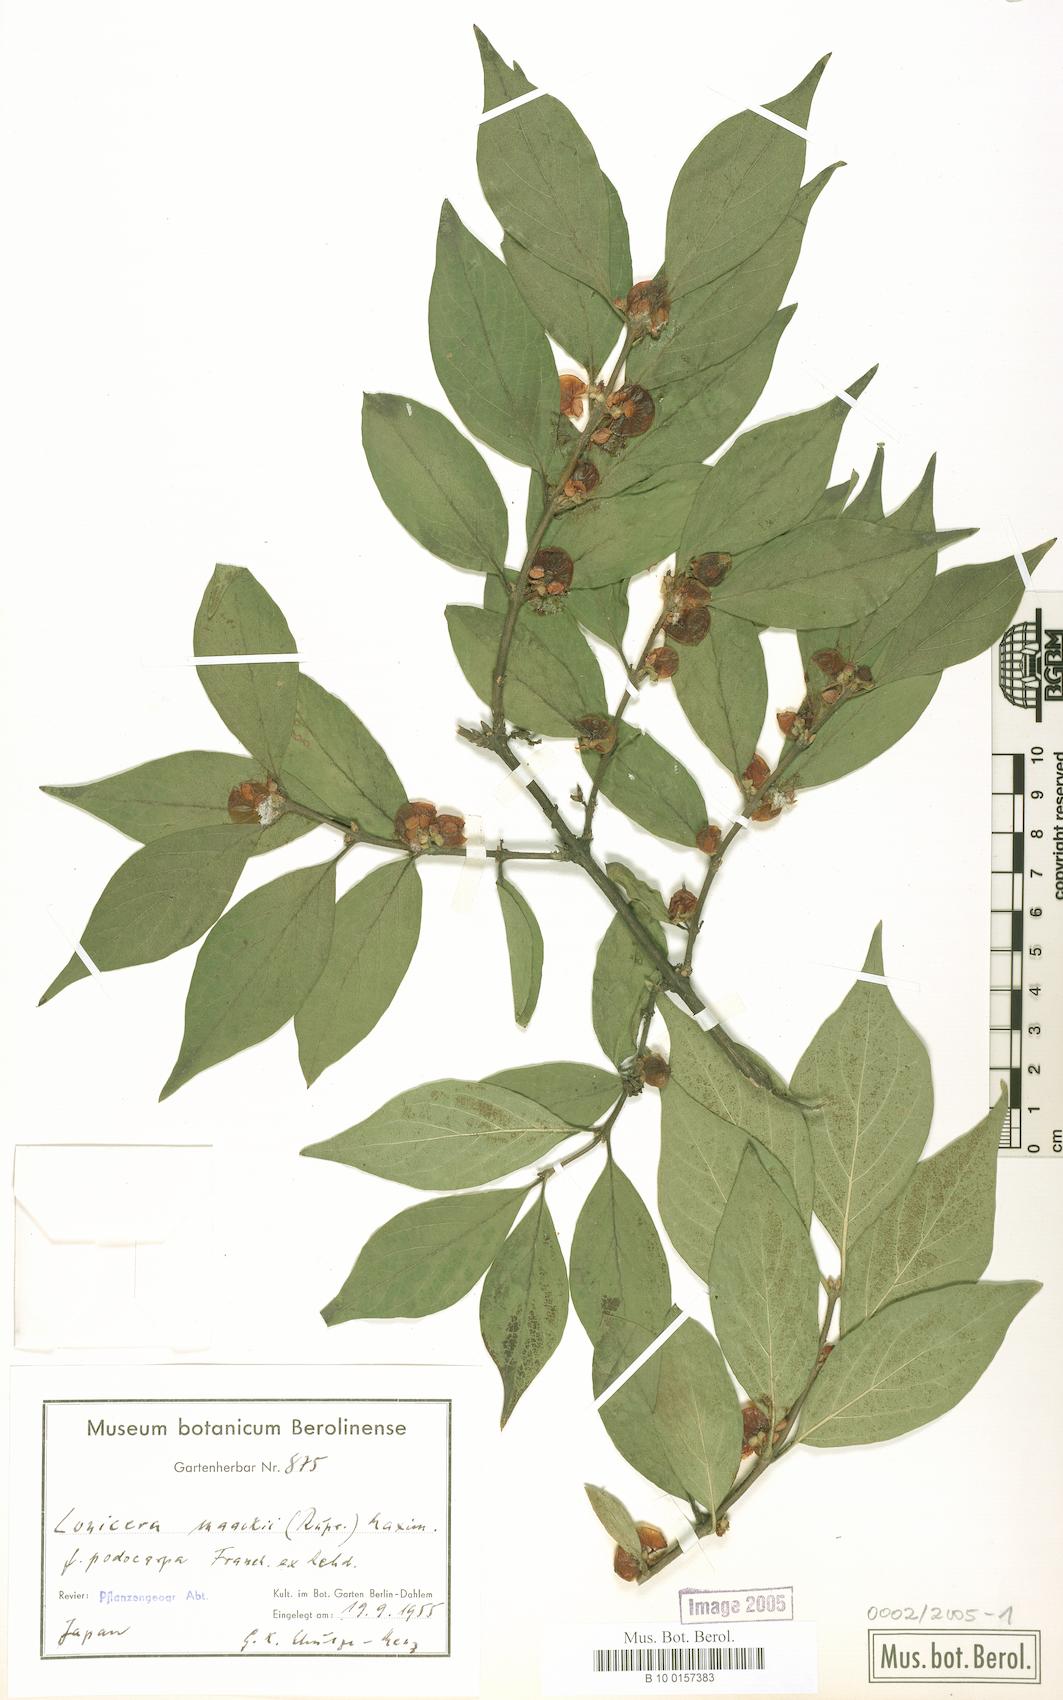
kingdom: Plantae
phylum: Tracheophyta
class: Magnoliopsida
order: Dipsacales
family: Caprifoliaceae
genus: Lonicera
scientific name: Lonicera maackii
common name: Amur honeysuckle
